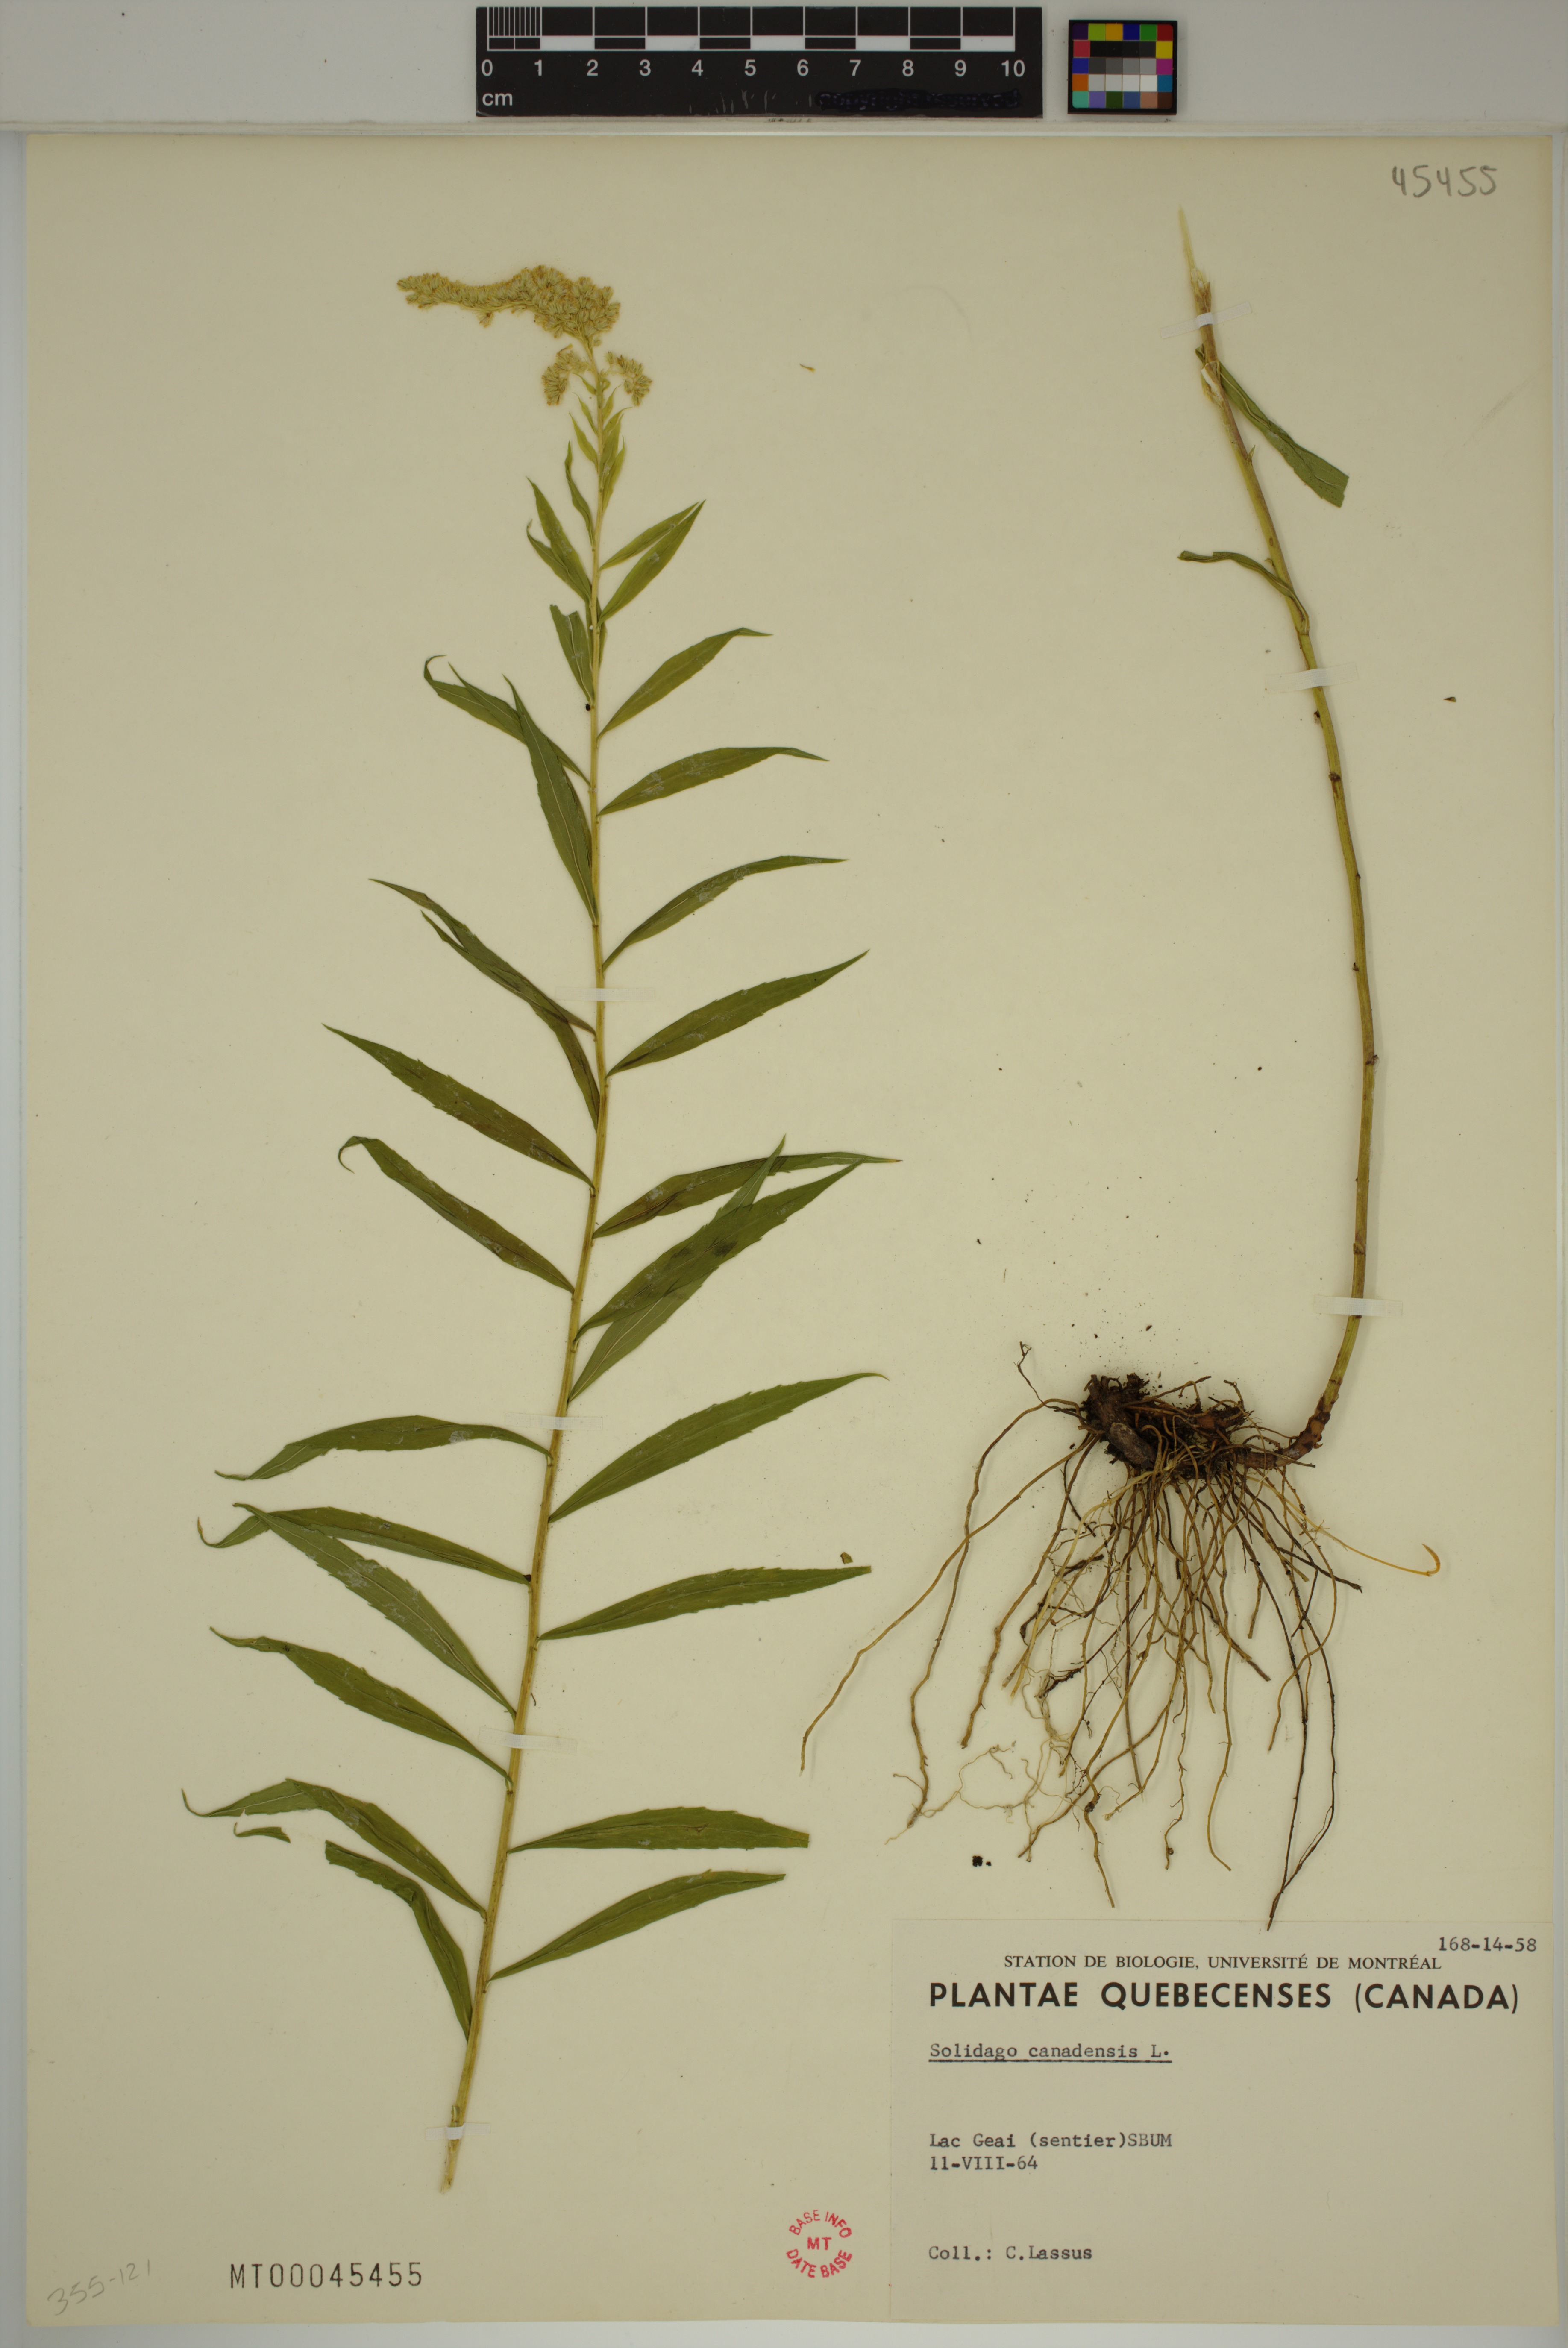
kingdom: Plantae
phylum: Tracheophyta
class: Magnoliopsida
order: Asterales
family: Asteraceae
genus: Solidago
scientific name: Solidago canadensis
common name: Canada goldenrod
